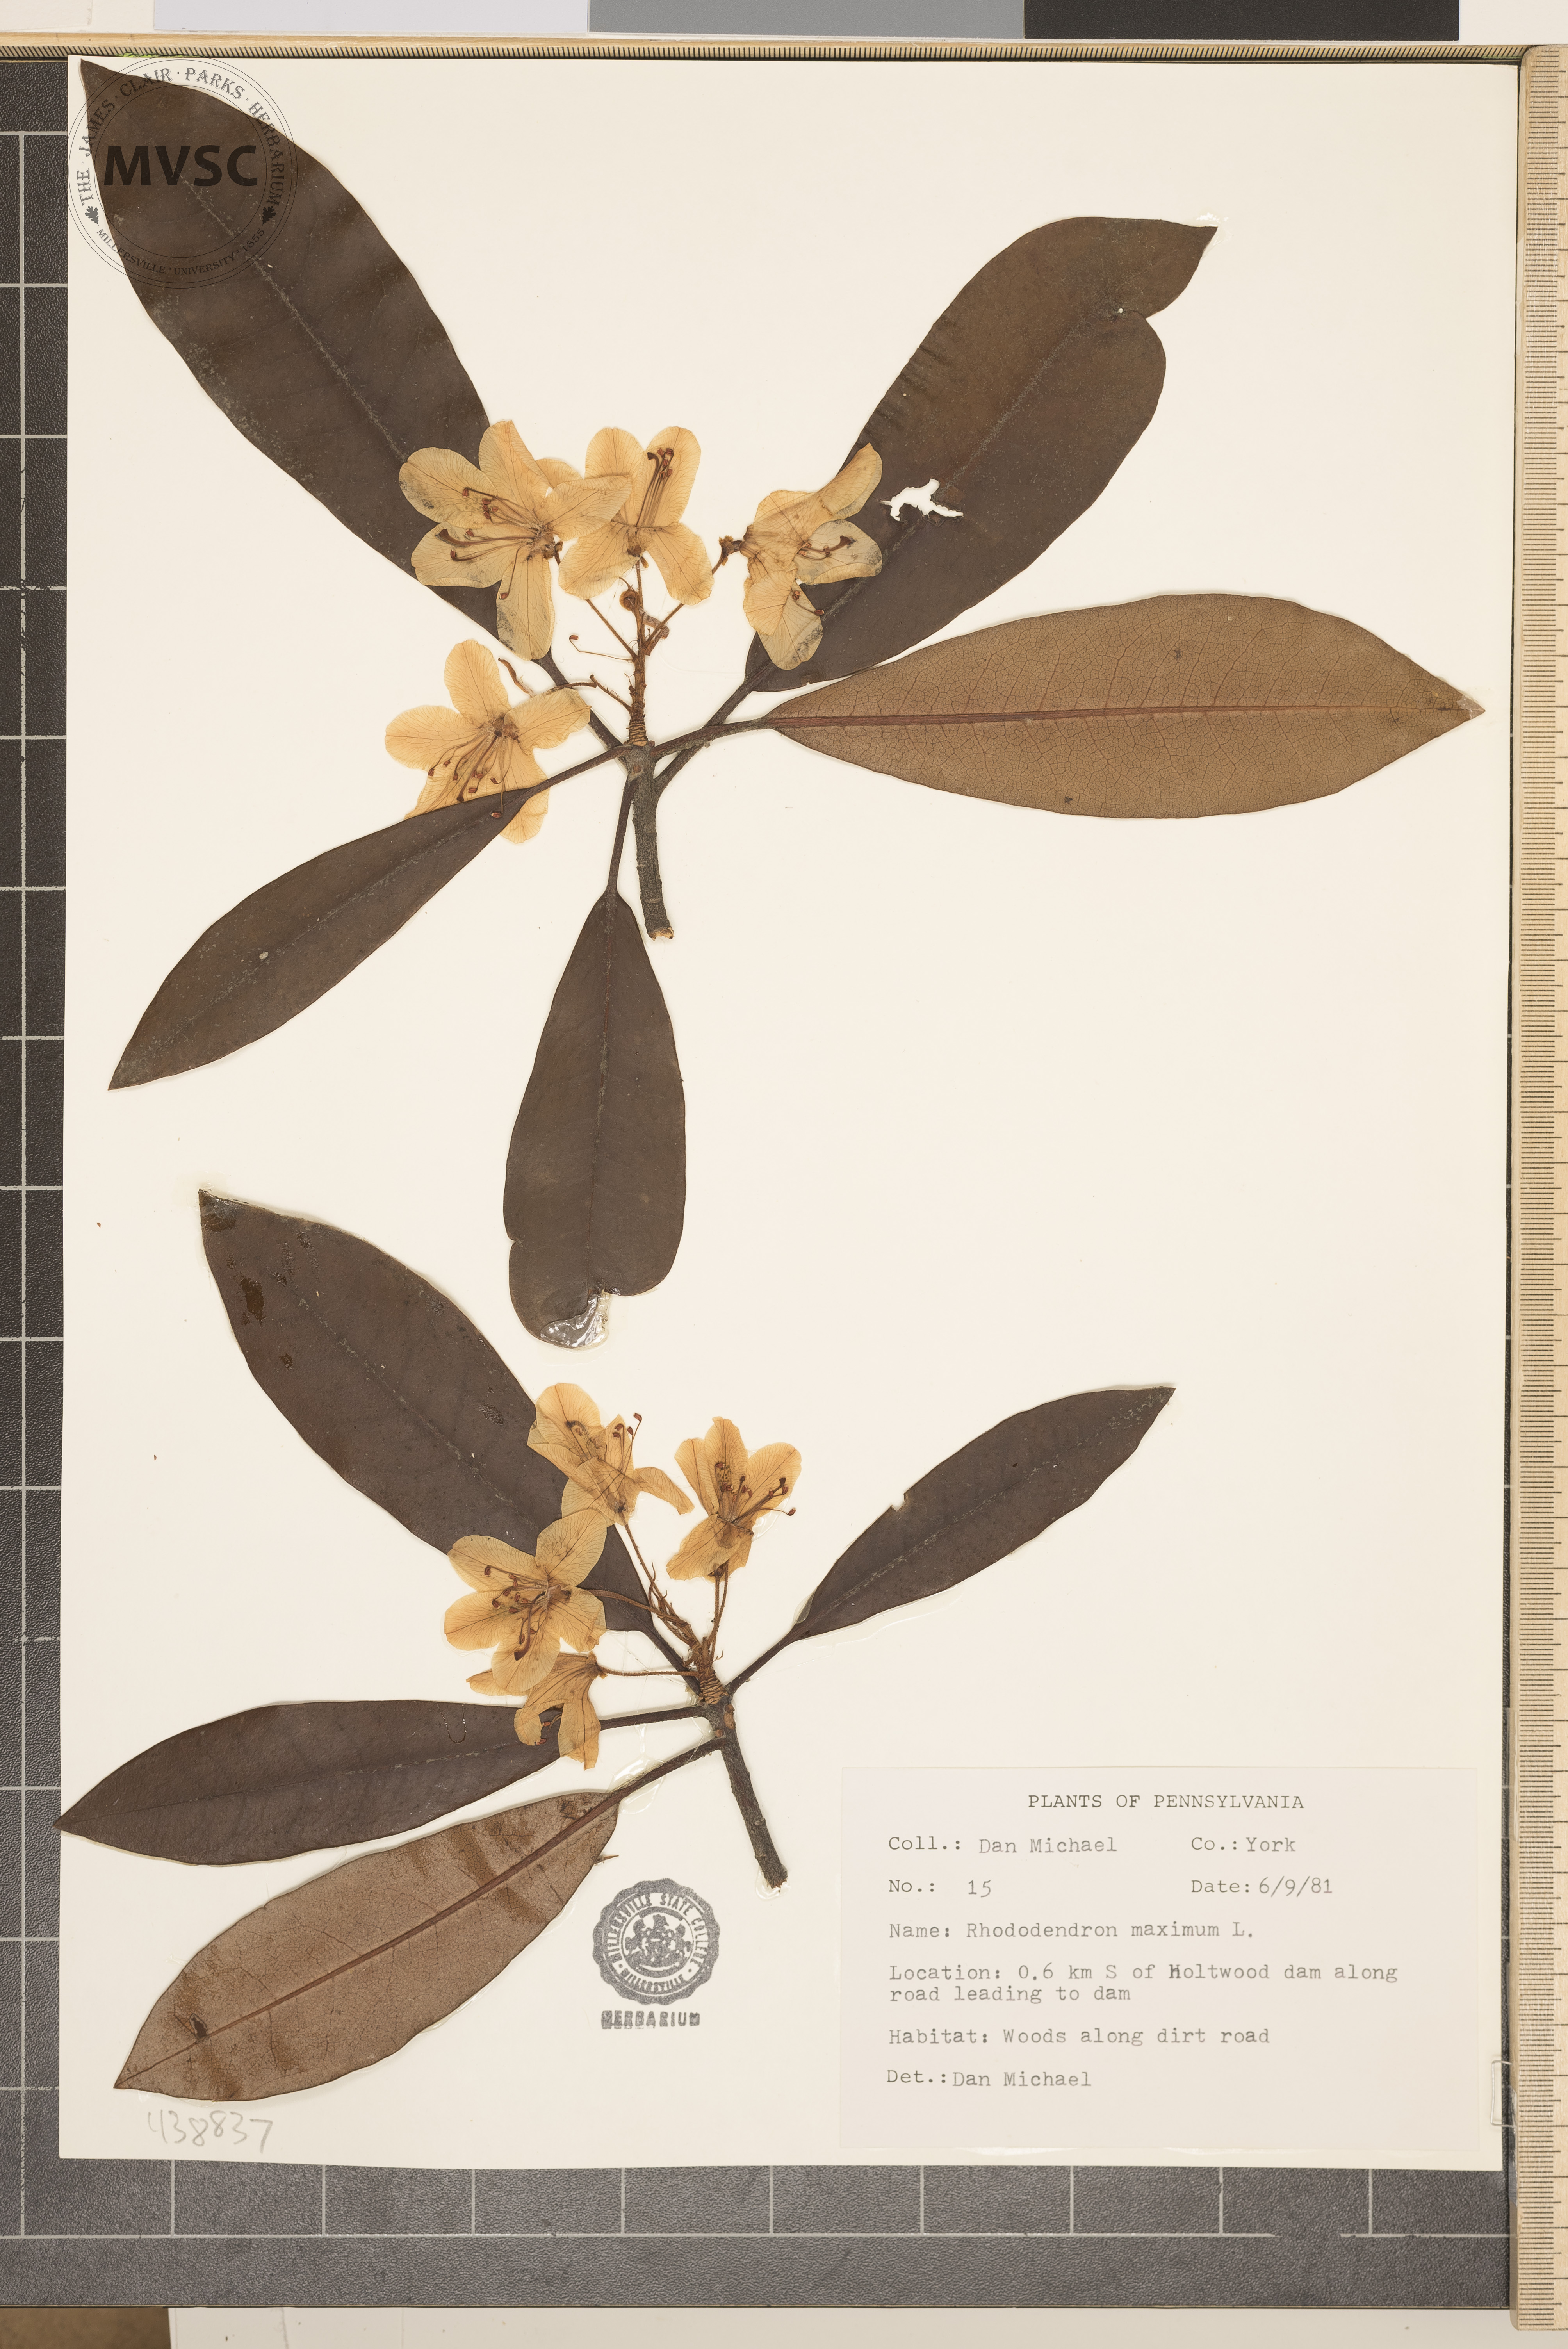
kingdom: Plantae
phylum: Tracheophyta
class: Magnoliopsida
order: Ericales
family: Ericaceae
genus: Rhododendron
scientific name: Rhododendron maximum
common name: Great rhododendron
